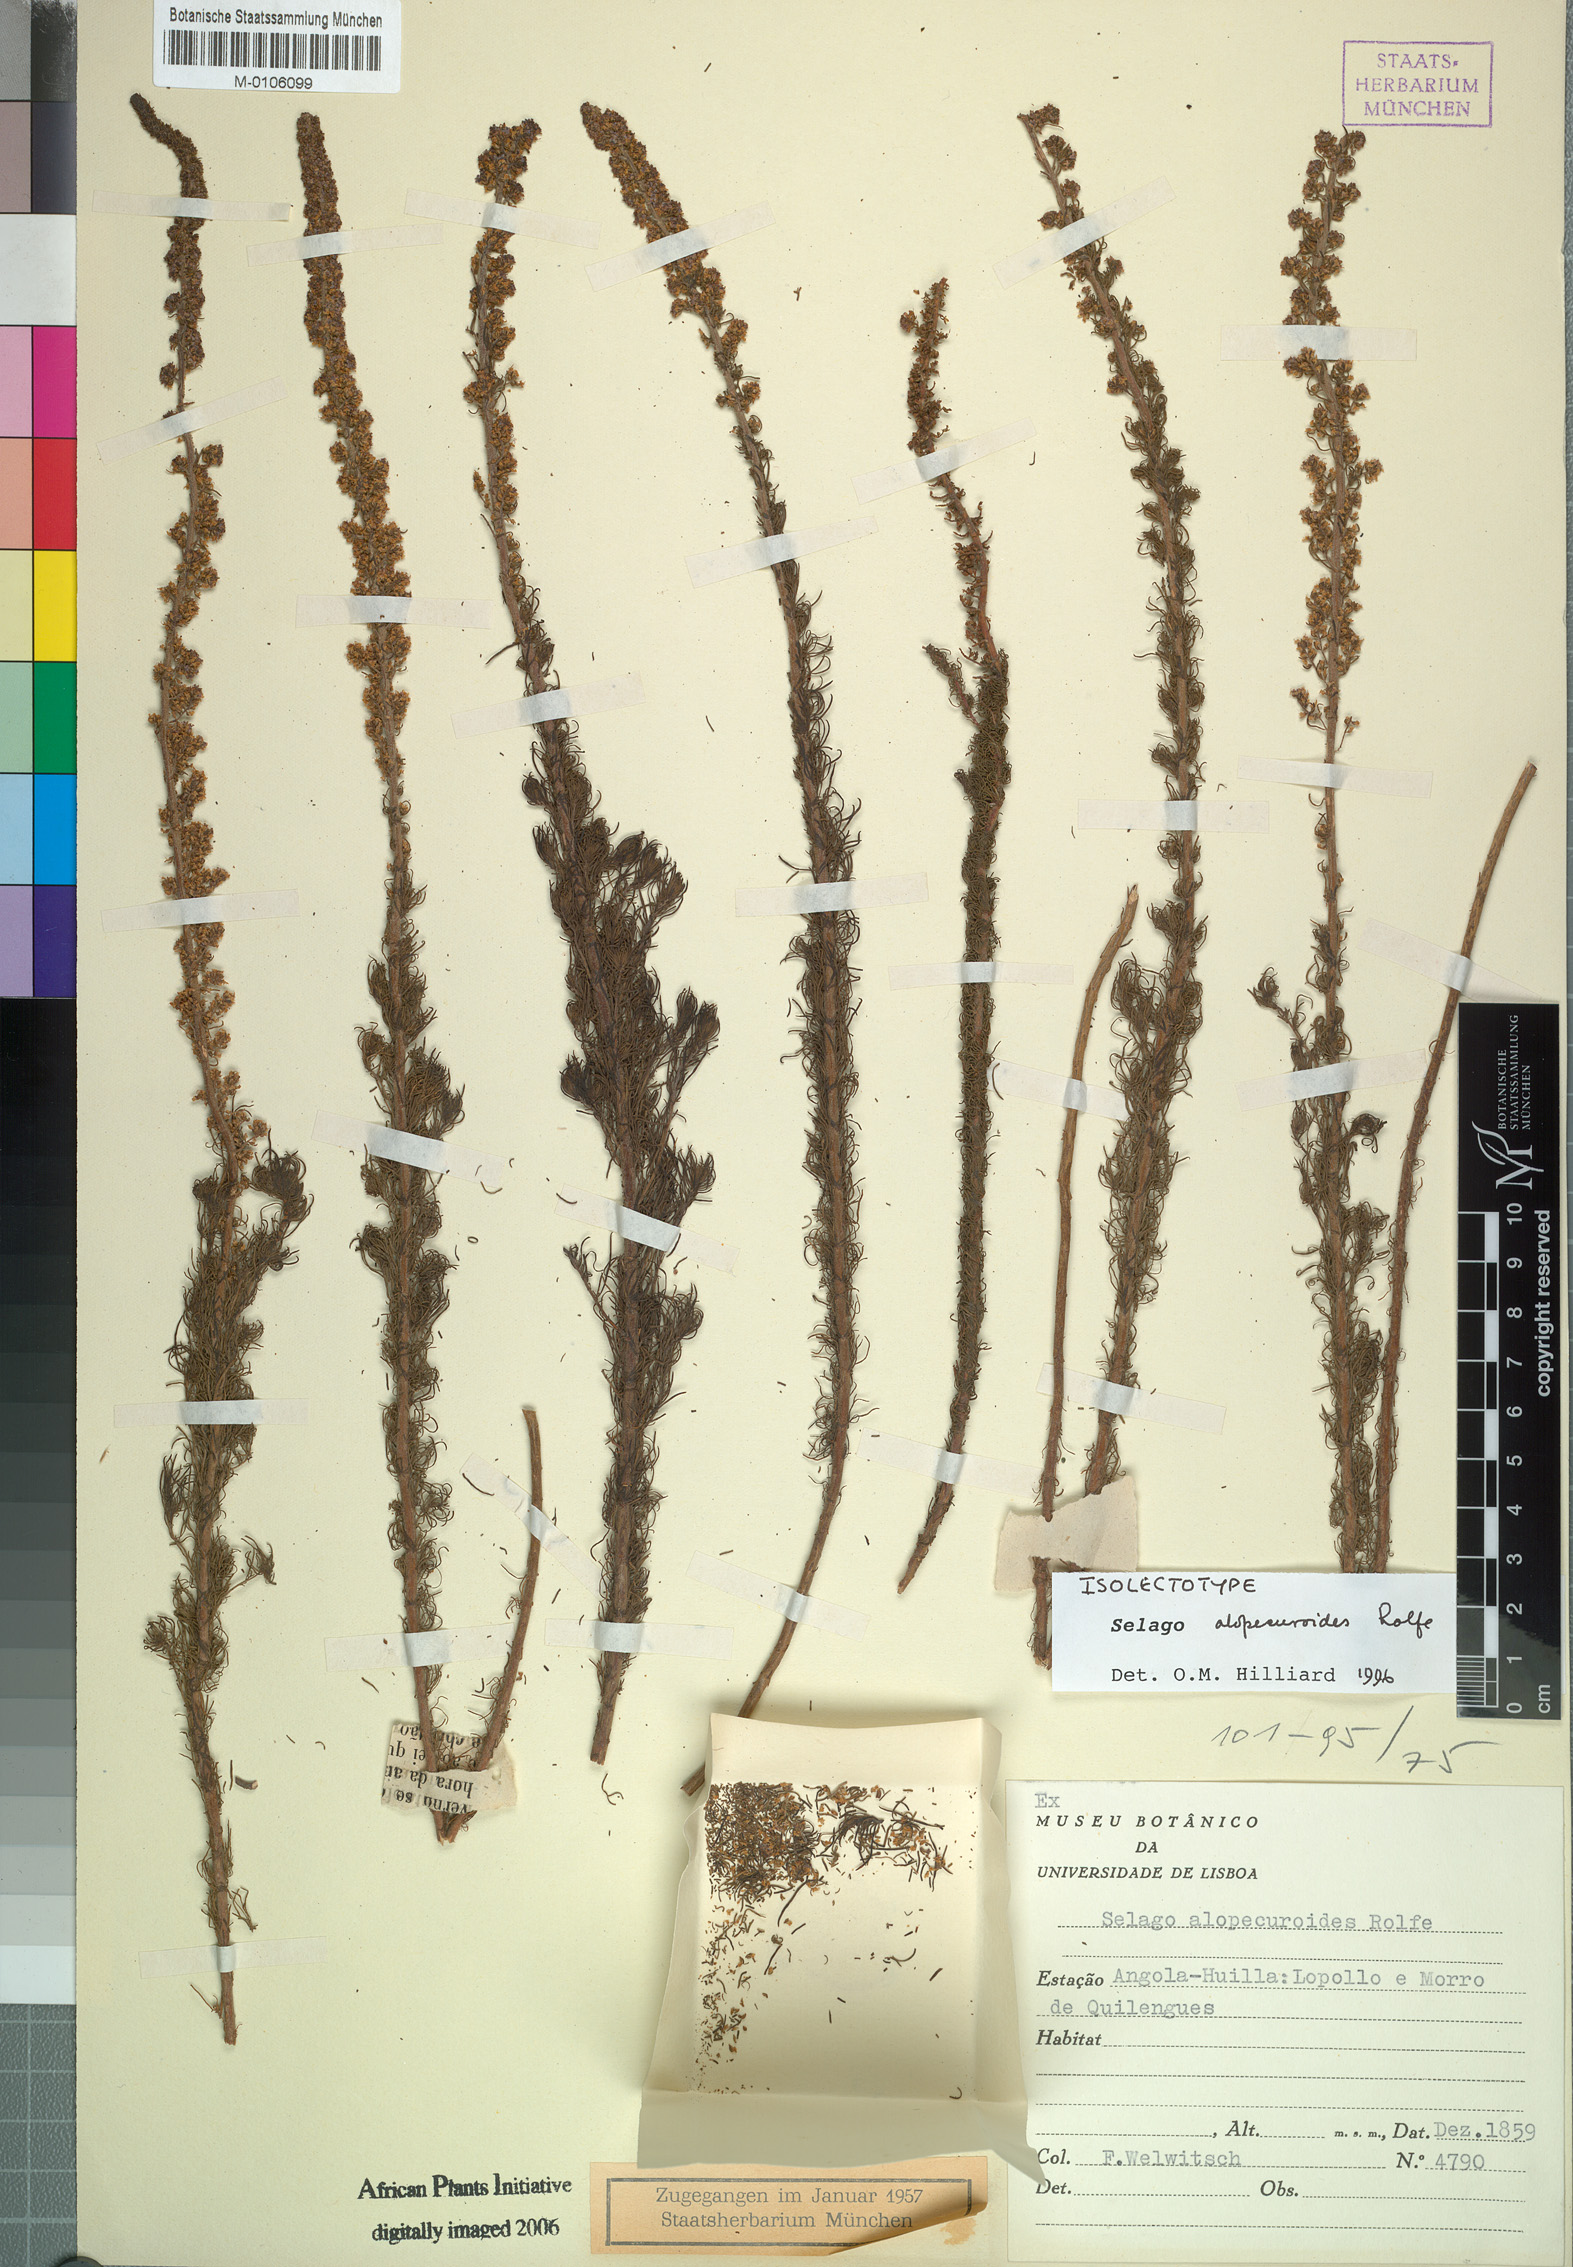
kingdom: Plantae
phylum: Tracheophyta
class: Magnoliopsida
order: Lamiales
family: Scrophulariaceae
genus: Selago
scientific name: Selago alopecuroides
